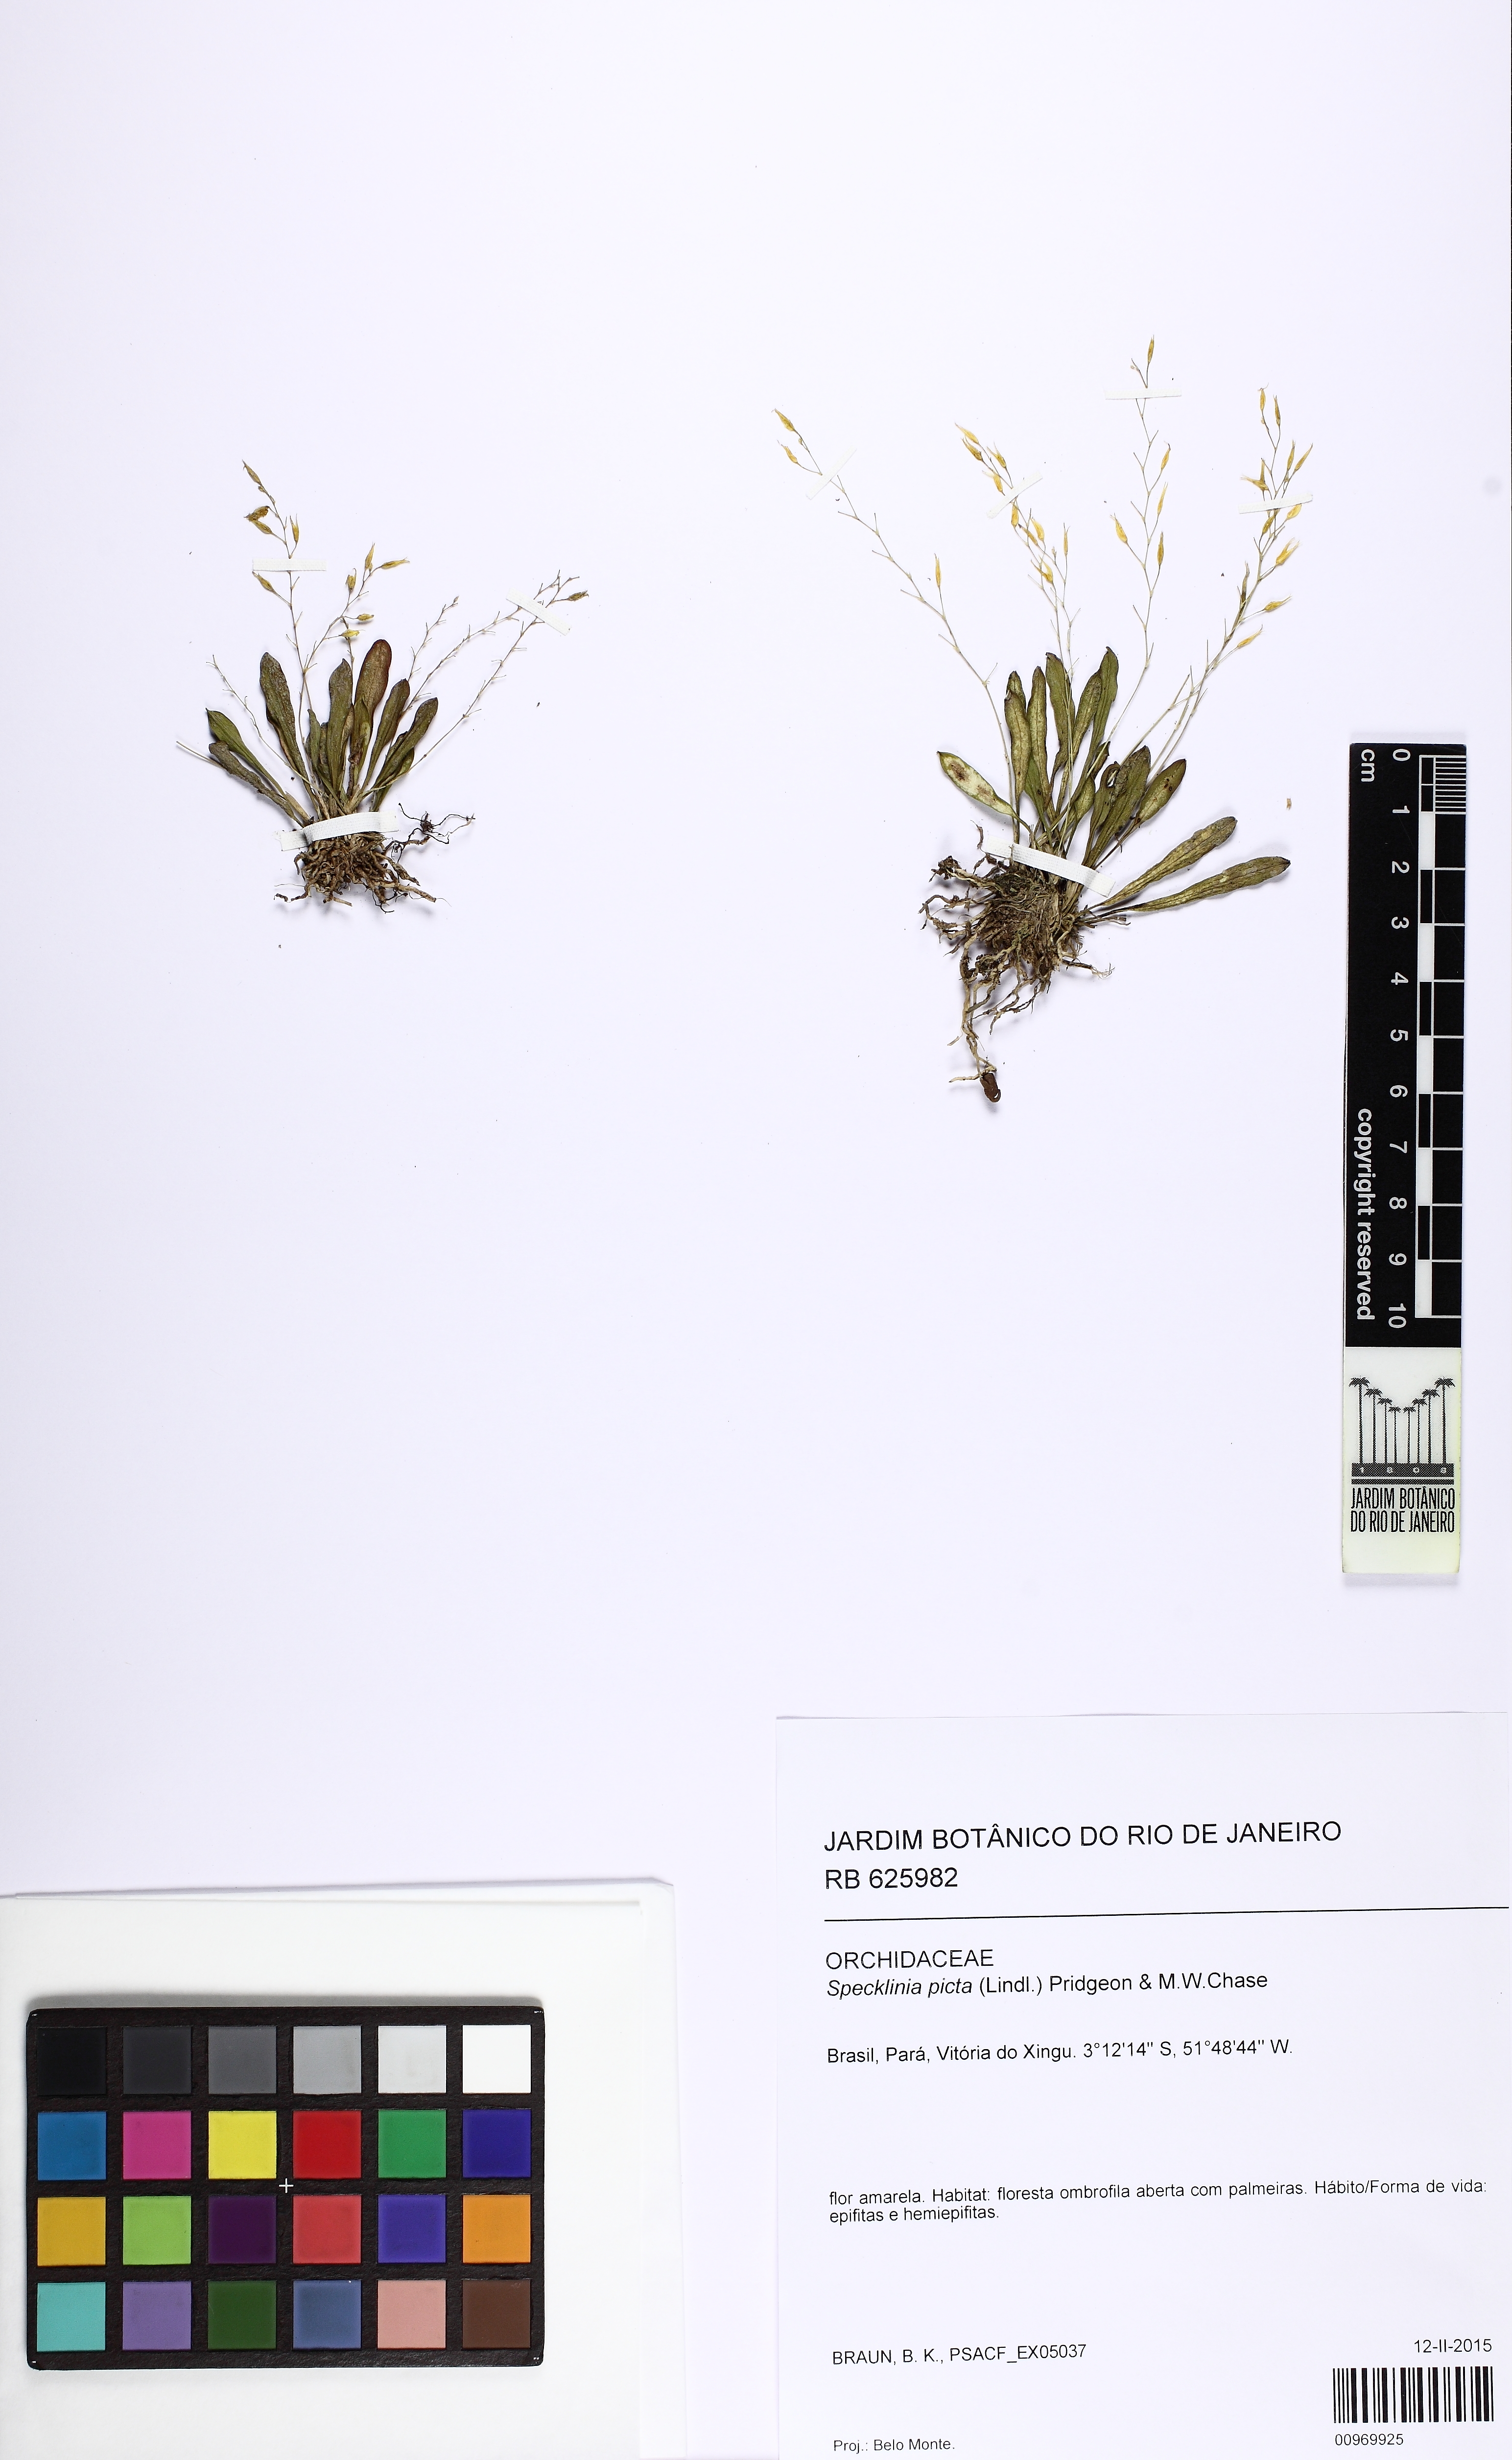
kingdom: Plantae
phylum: Tracheophyta
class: Liliopsida
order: Asparagales
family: Orchidaceae
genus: Specklinia
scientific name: Specklinia picta
